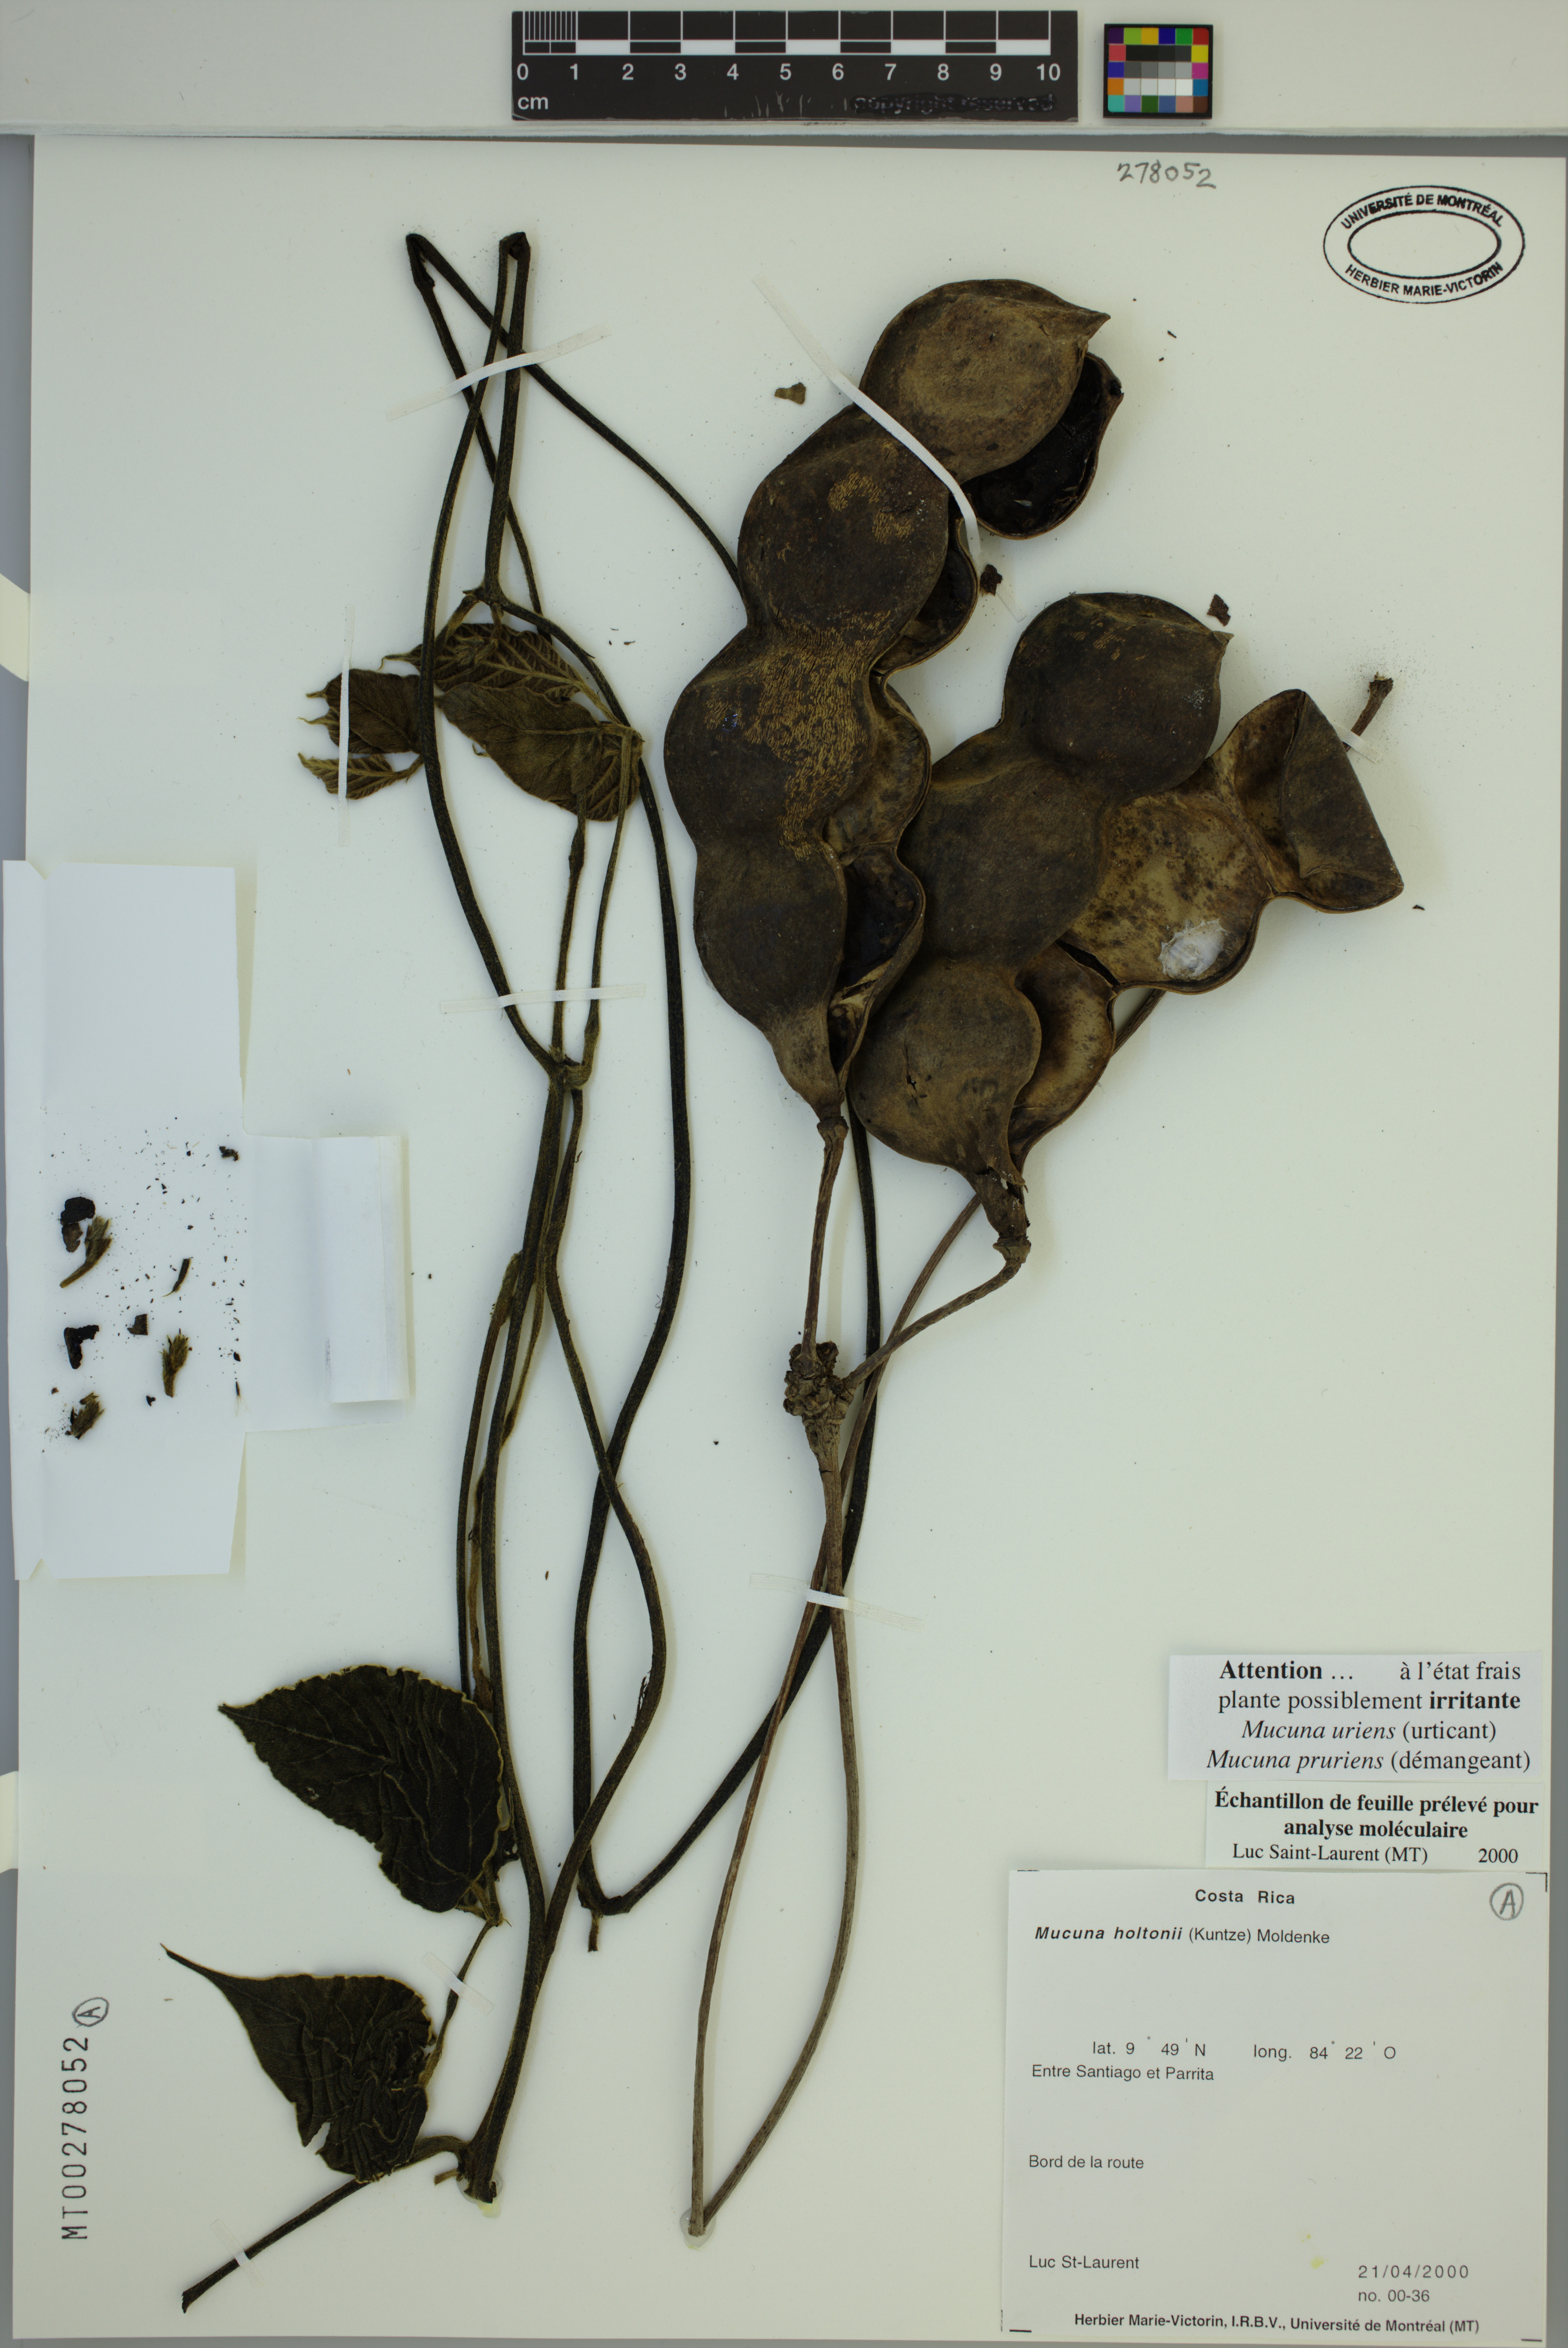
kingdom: Plantae
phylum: Tracheophyta
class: Magnoliopsida
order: Fabales
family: Fabaceae
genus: Mucuna
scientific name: Mucuna holtonii
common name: Hamburger bean
